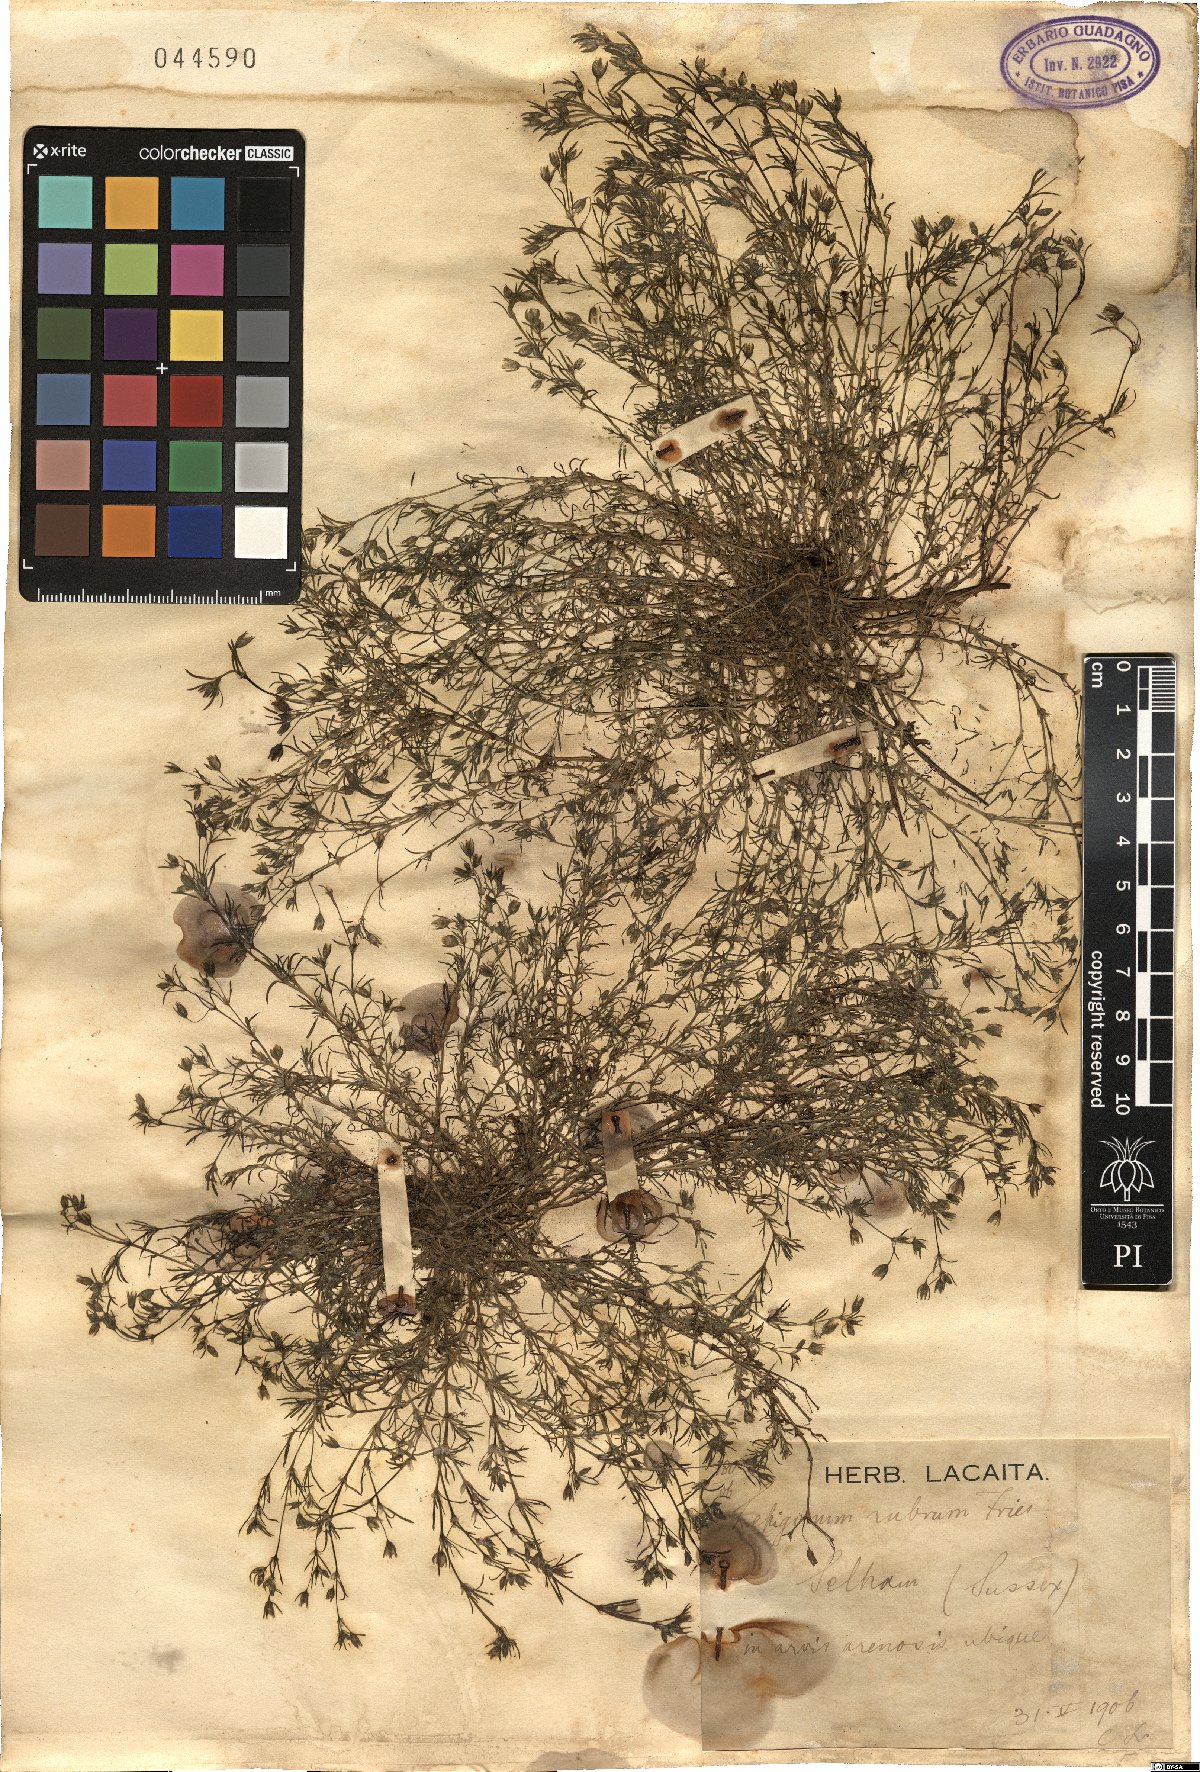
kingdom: Plantae
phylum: Tracheophyta
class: Magnoliopsida
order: Caryophyllales
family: Caryophyllaceae
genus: Spergularia
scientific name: Spergularia rubra
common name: Red sand-spurrey
